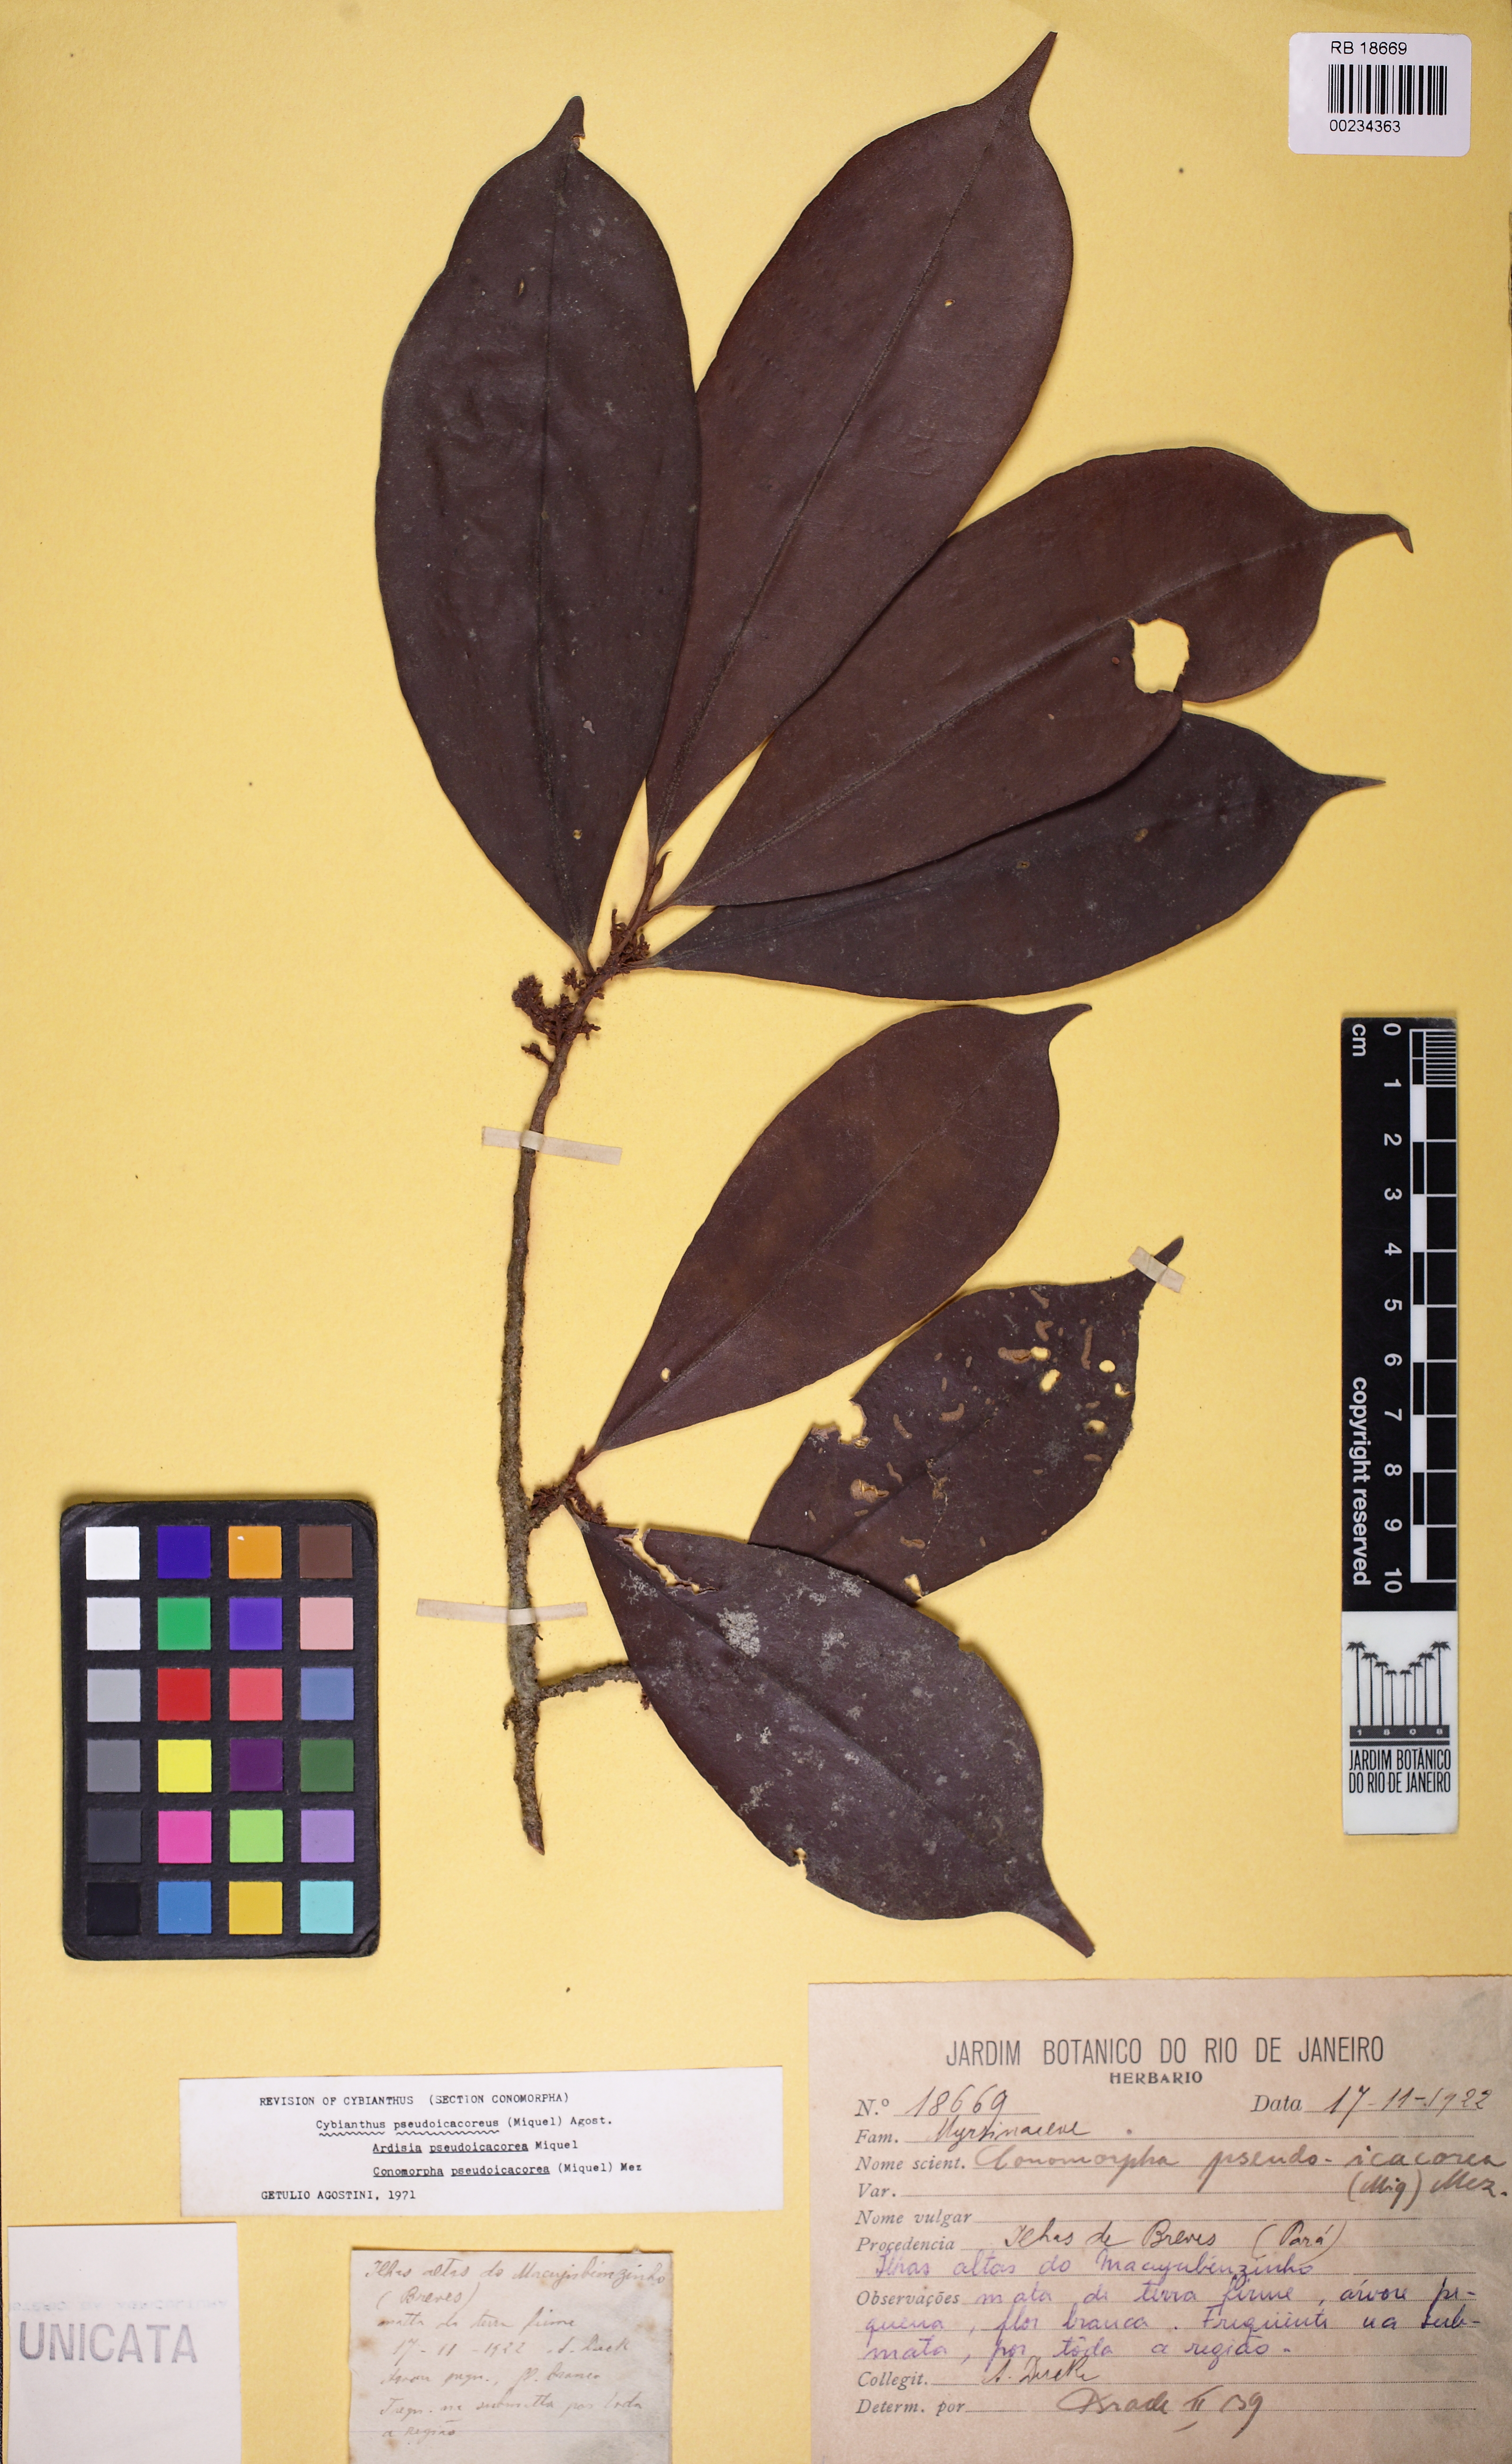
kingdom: Plantae
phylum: Tracheophyta
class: Magnoliopsida
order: Ericales
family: Primulaceae
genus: Cybianthus
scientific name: Cybianthus guyanensis
